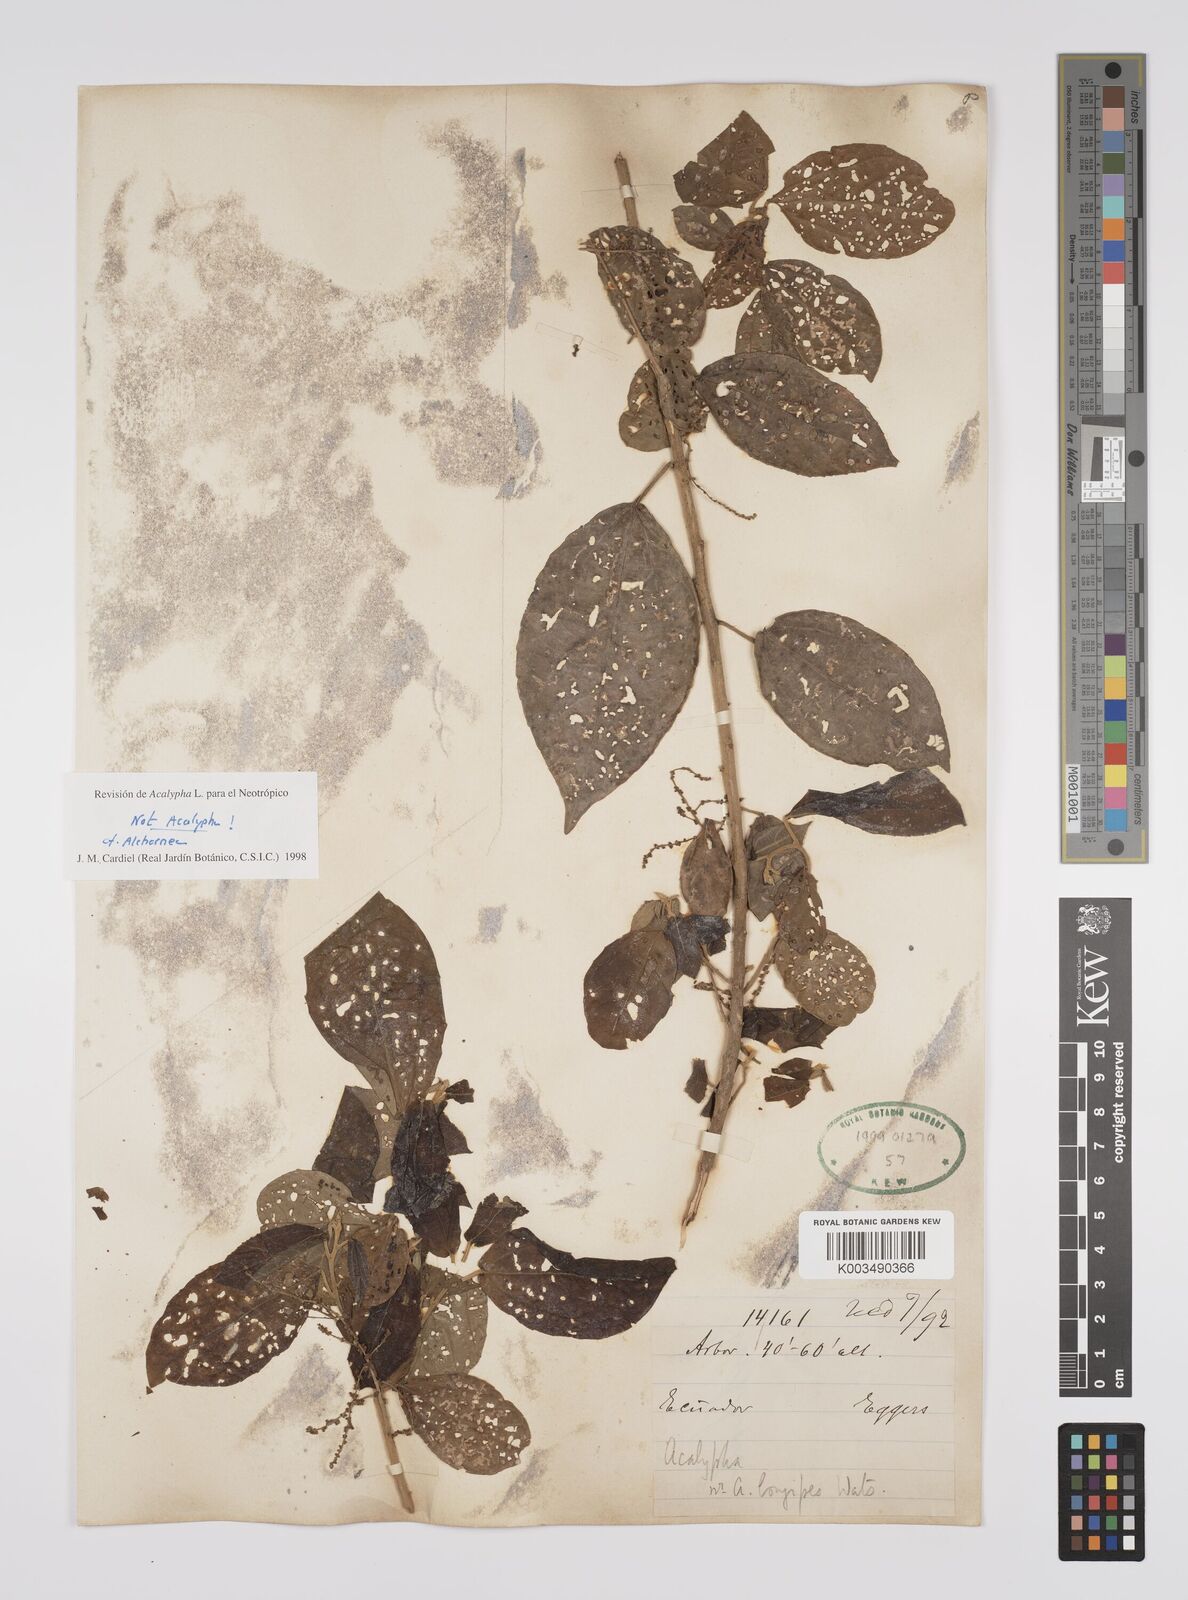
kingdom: Plantae
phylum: Tracheophyta
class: Magnoliopsida
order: Malpighiales
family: Euphorbiaceae
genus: Alchornea
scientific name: Alchornea
